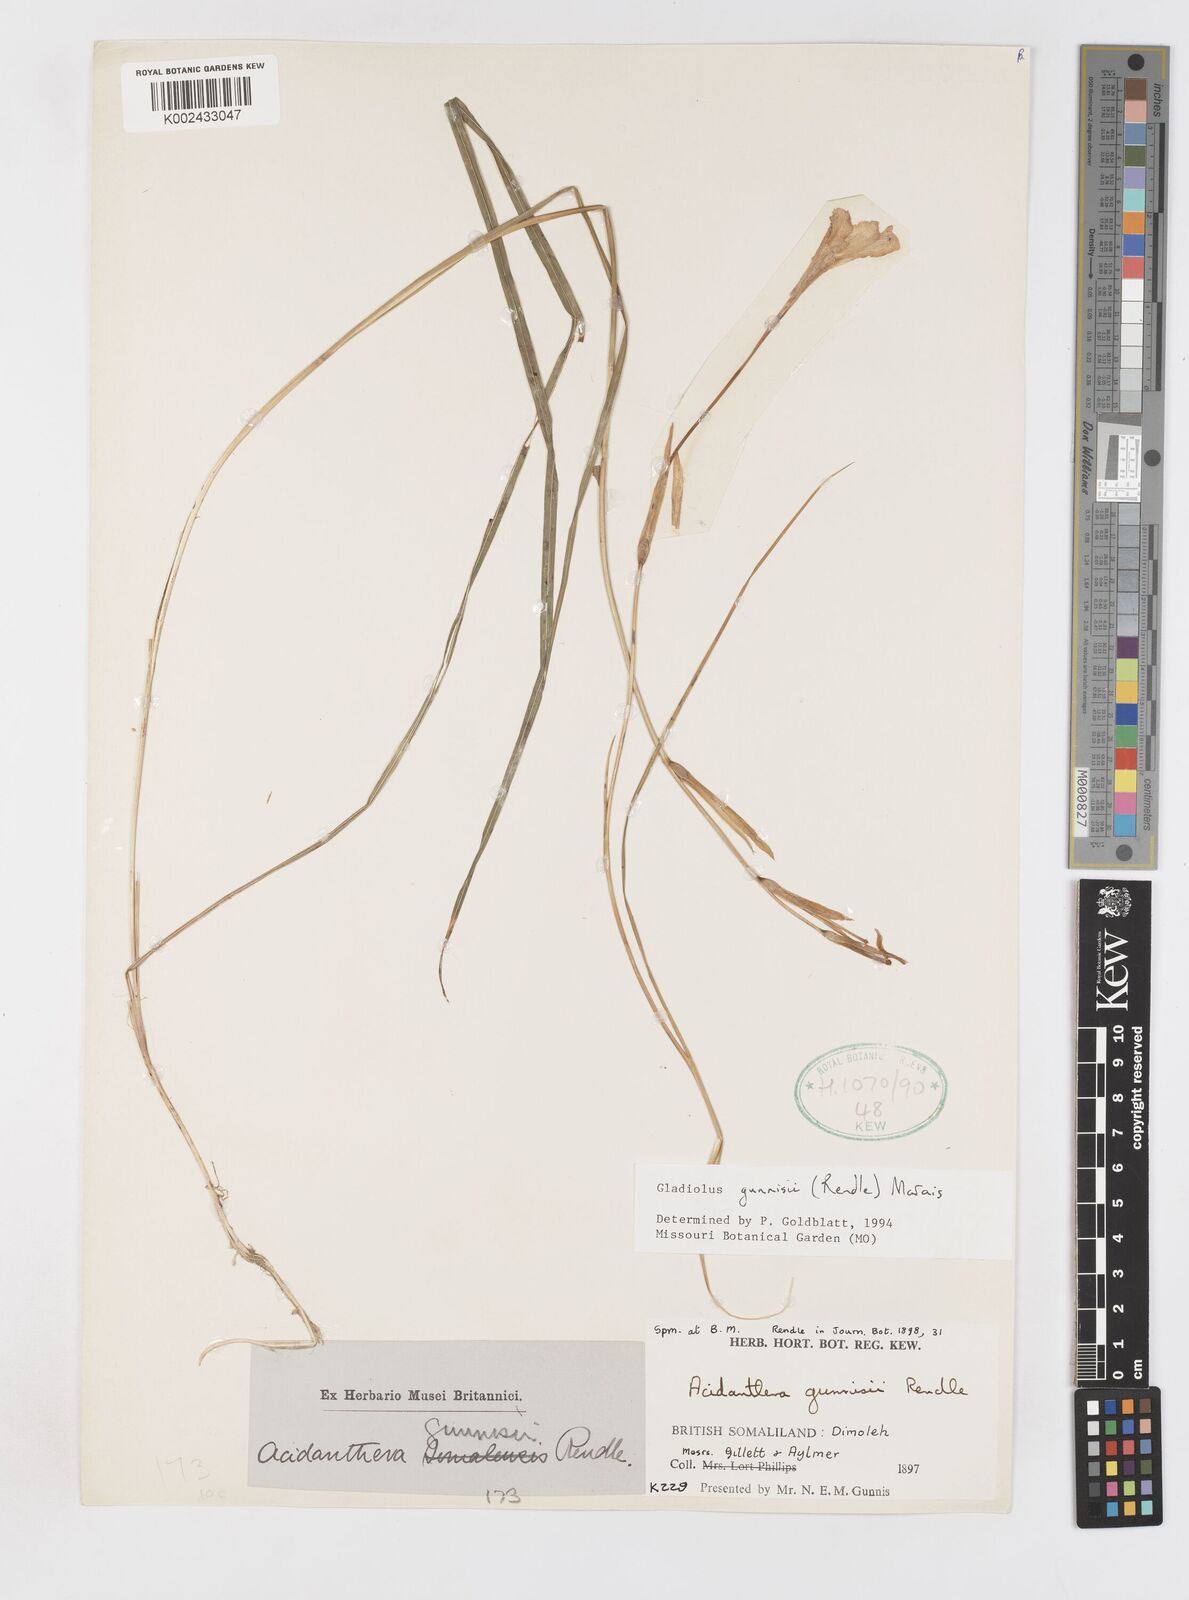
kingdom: Plantae
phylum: Tracheophyta
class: Liliopsida
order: Asparagales
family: Iridaceae
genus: Gladiolus
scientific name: Gladiolus gunnisii
